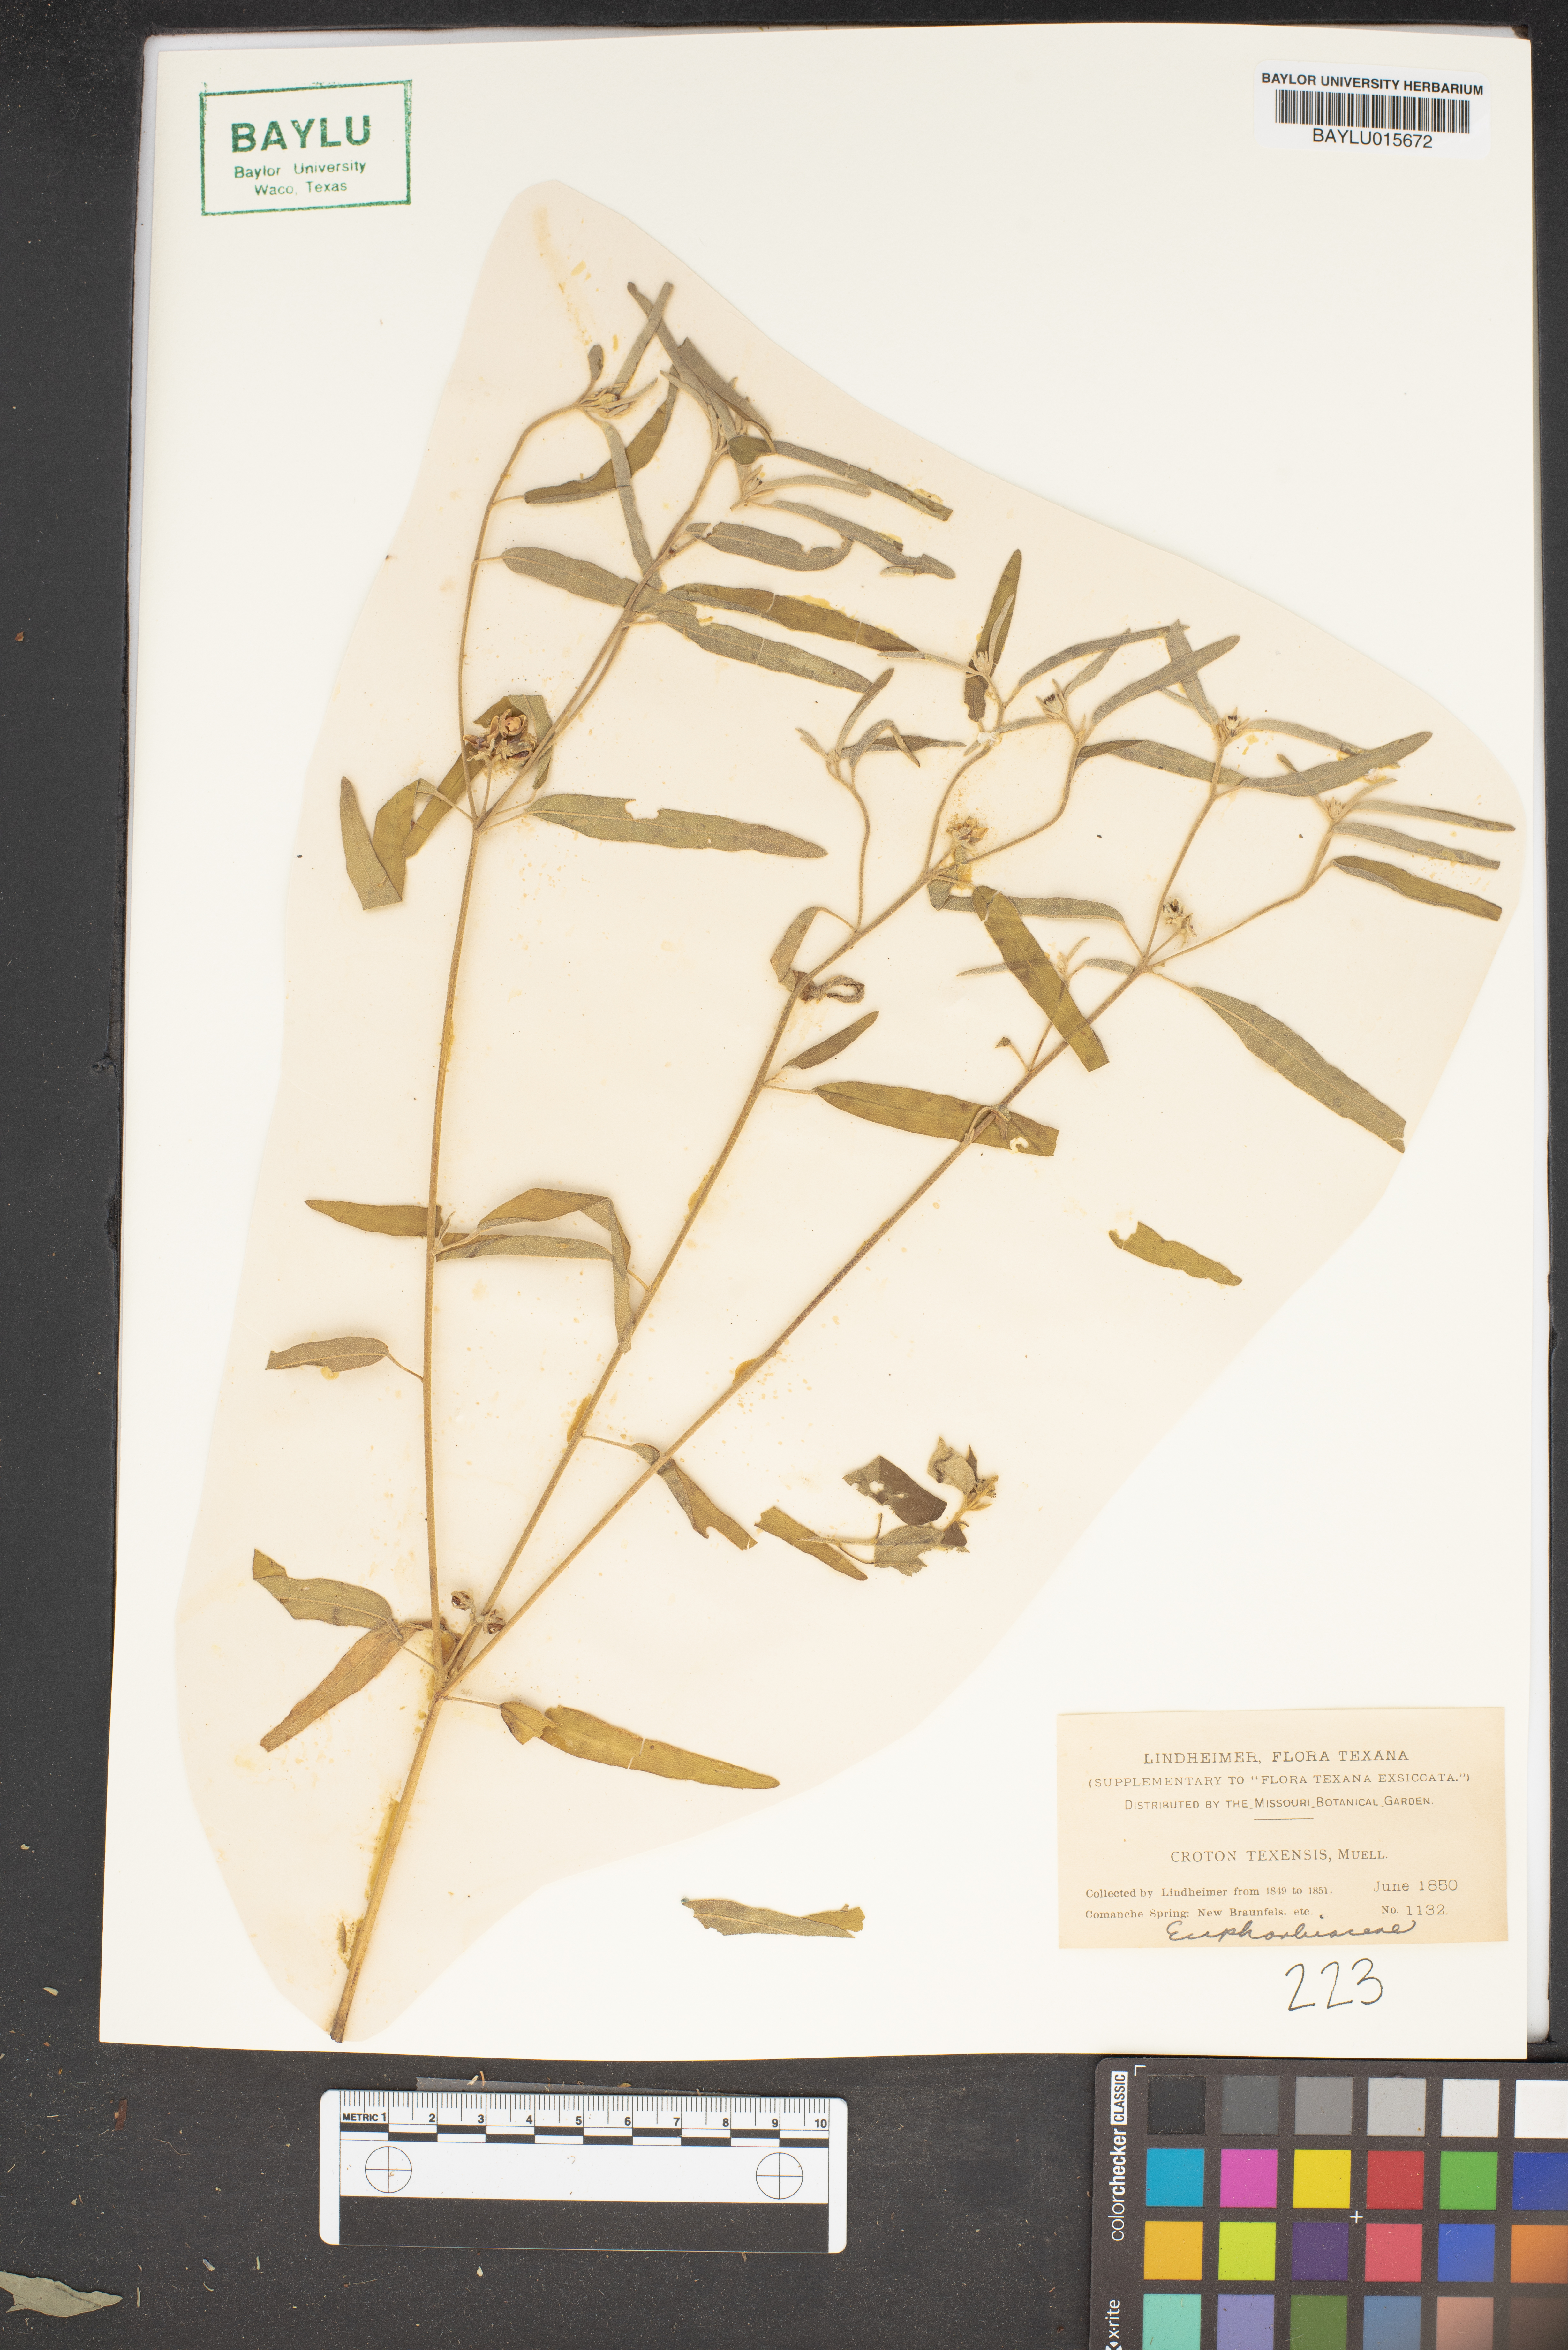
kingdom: Plantae
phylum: Tracheophyta
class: Magnoliopsida
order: Malpighiales
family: Euphorbiaceae
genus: Croton
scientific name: Croton texensis
